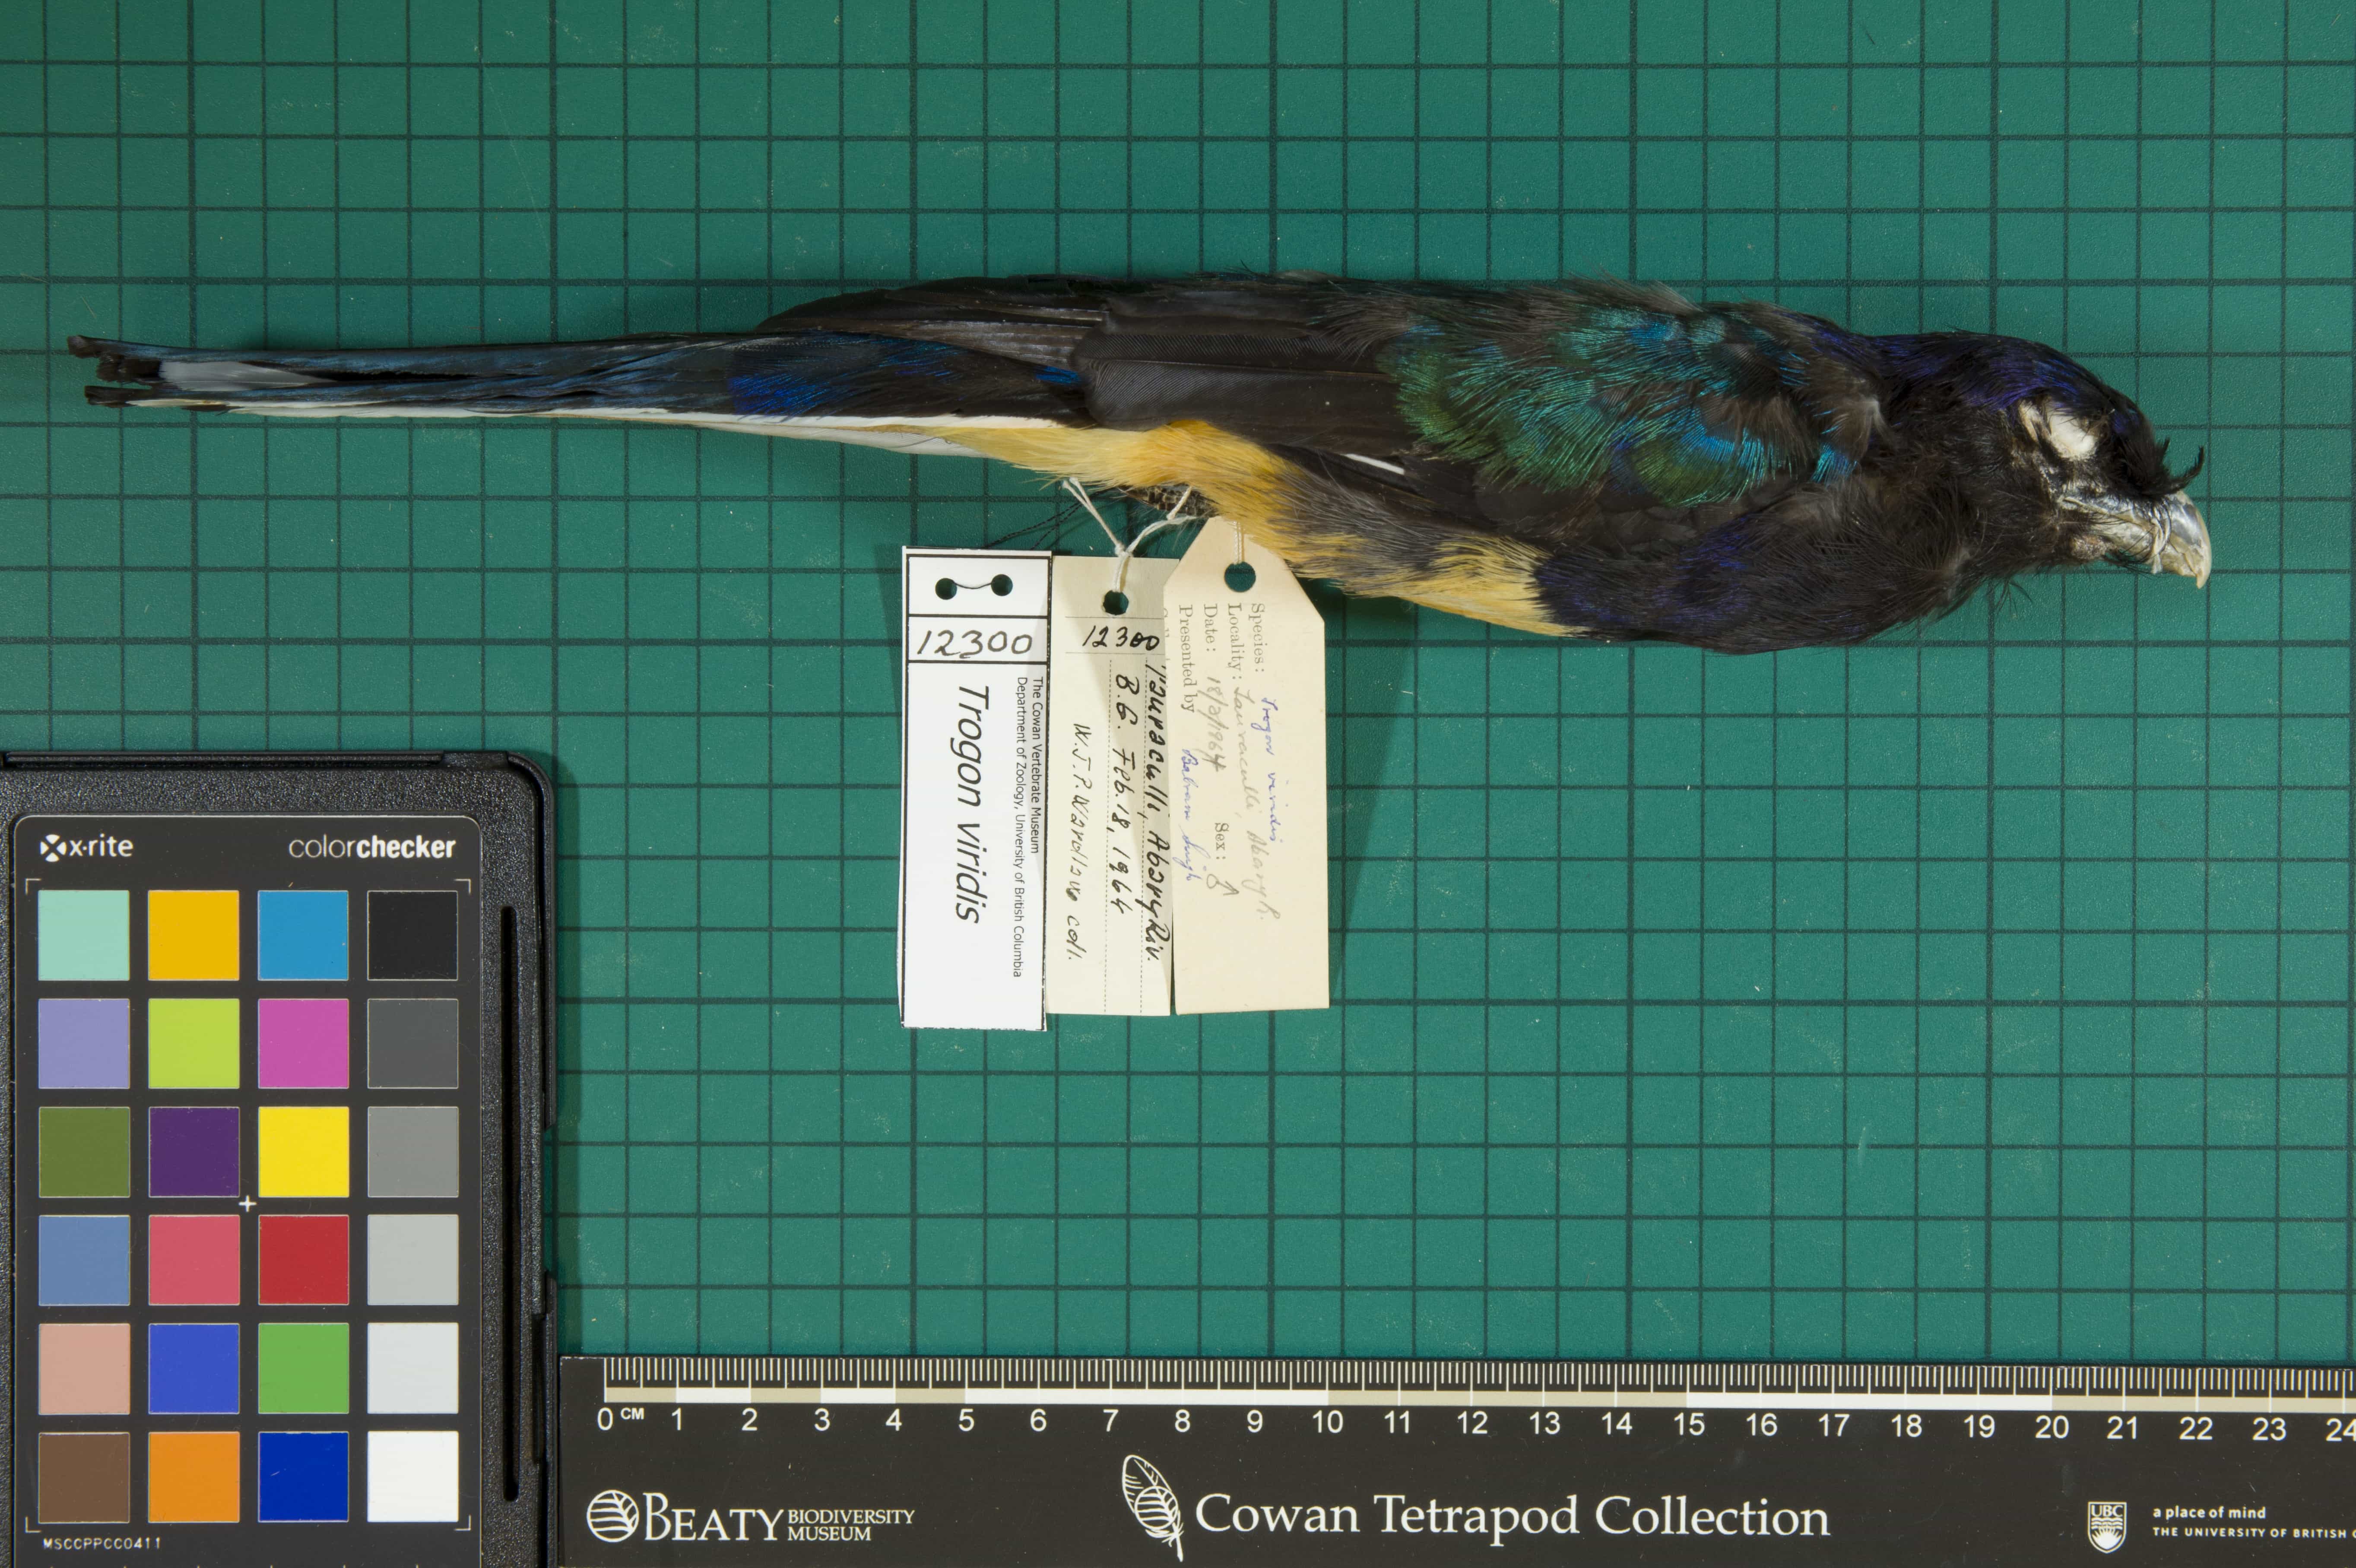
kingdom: Animalia
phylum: Chordata
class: Aves
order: Trogoniformes
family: Trogonidae
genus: Trogon
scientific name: Trogon viridis
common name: Green-backed Trogon
